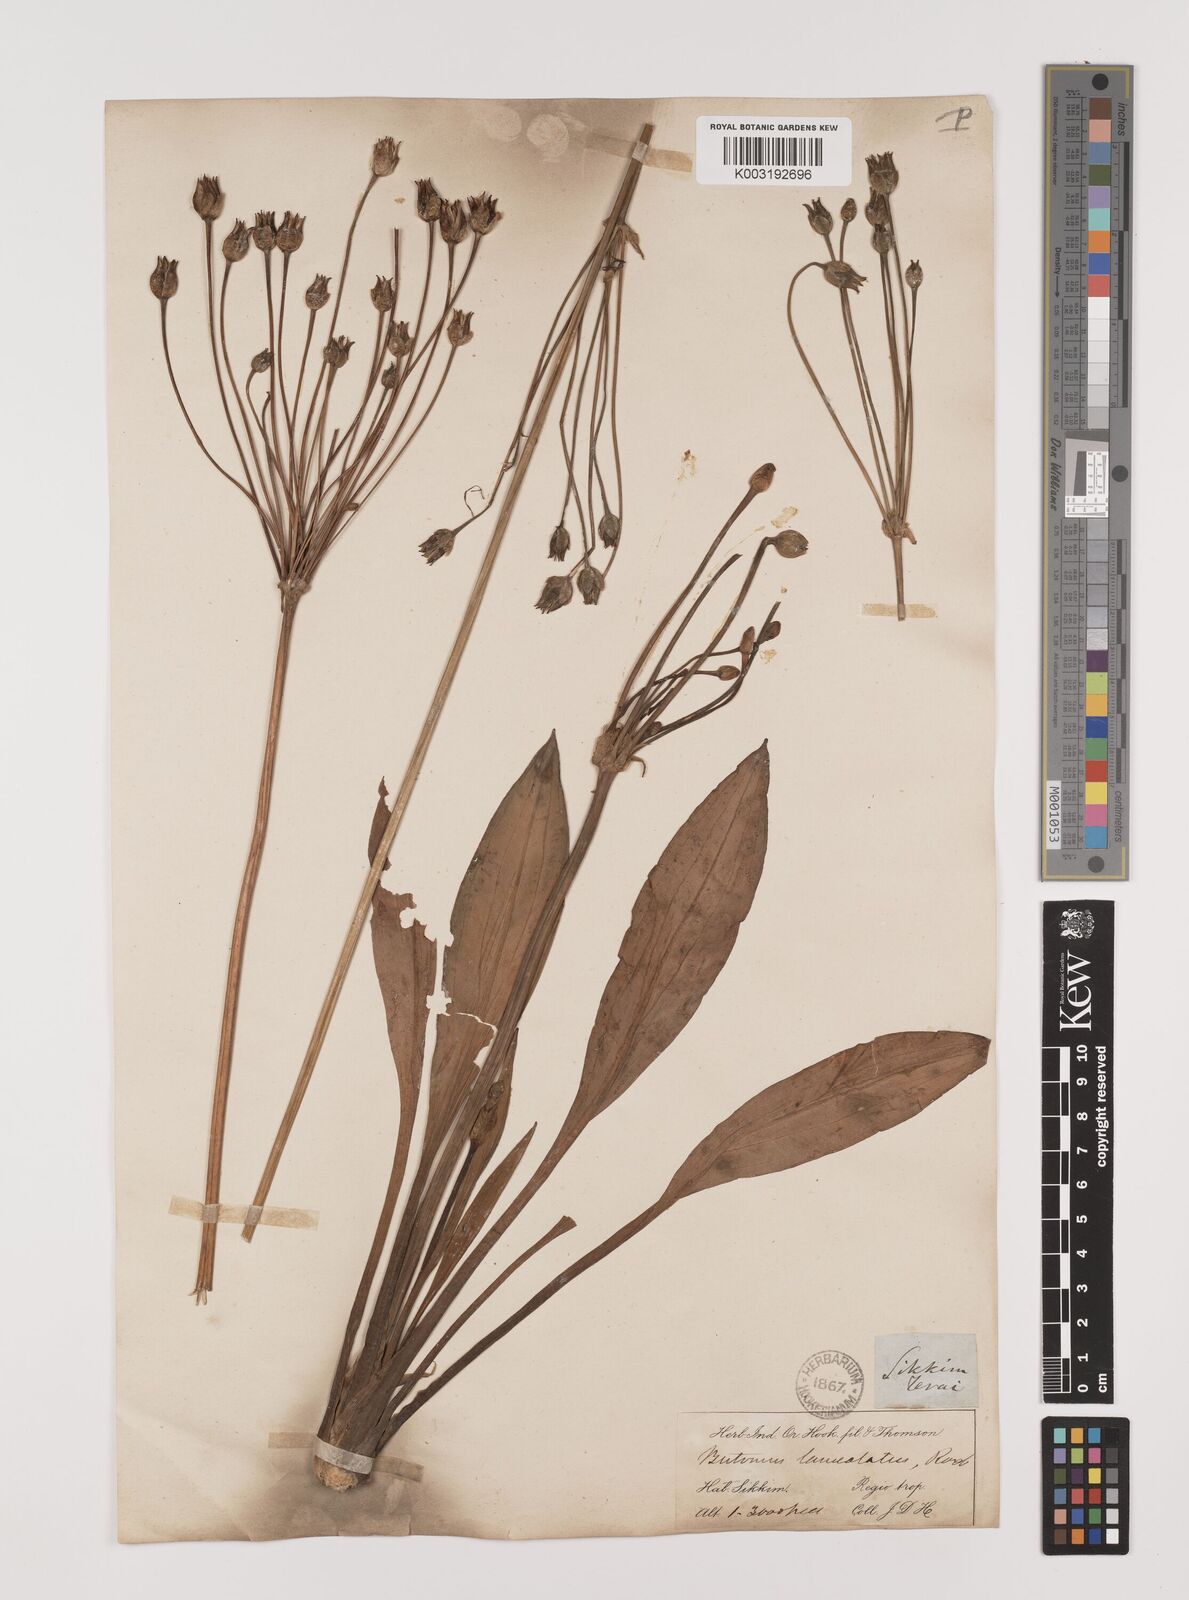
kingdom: Plantae
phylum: Tracheophyta
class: Liliopsida
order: Alismatales
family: Alismataceae
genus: Butomopsis
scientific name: Butomopsis latifolia
